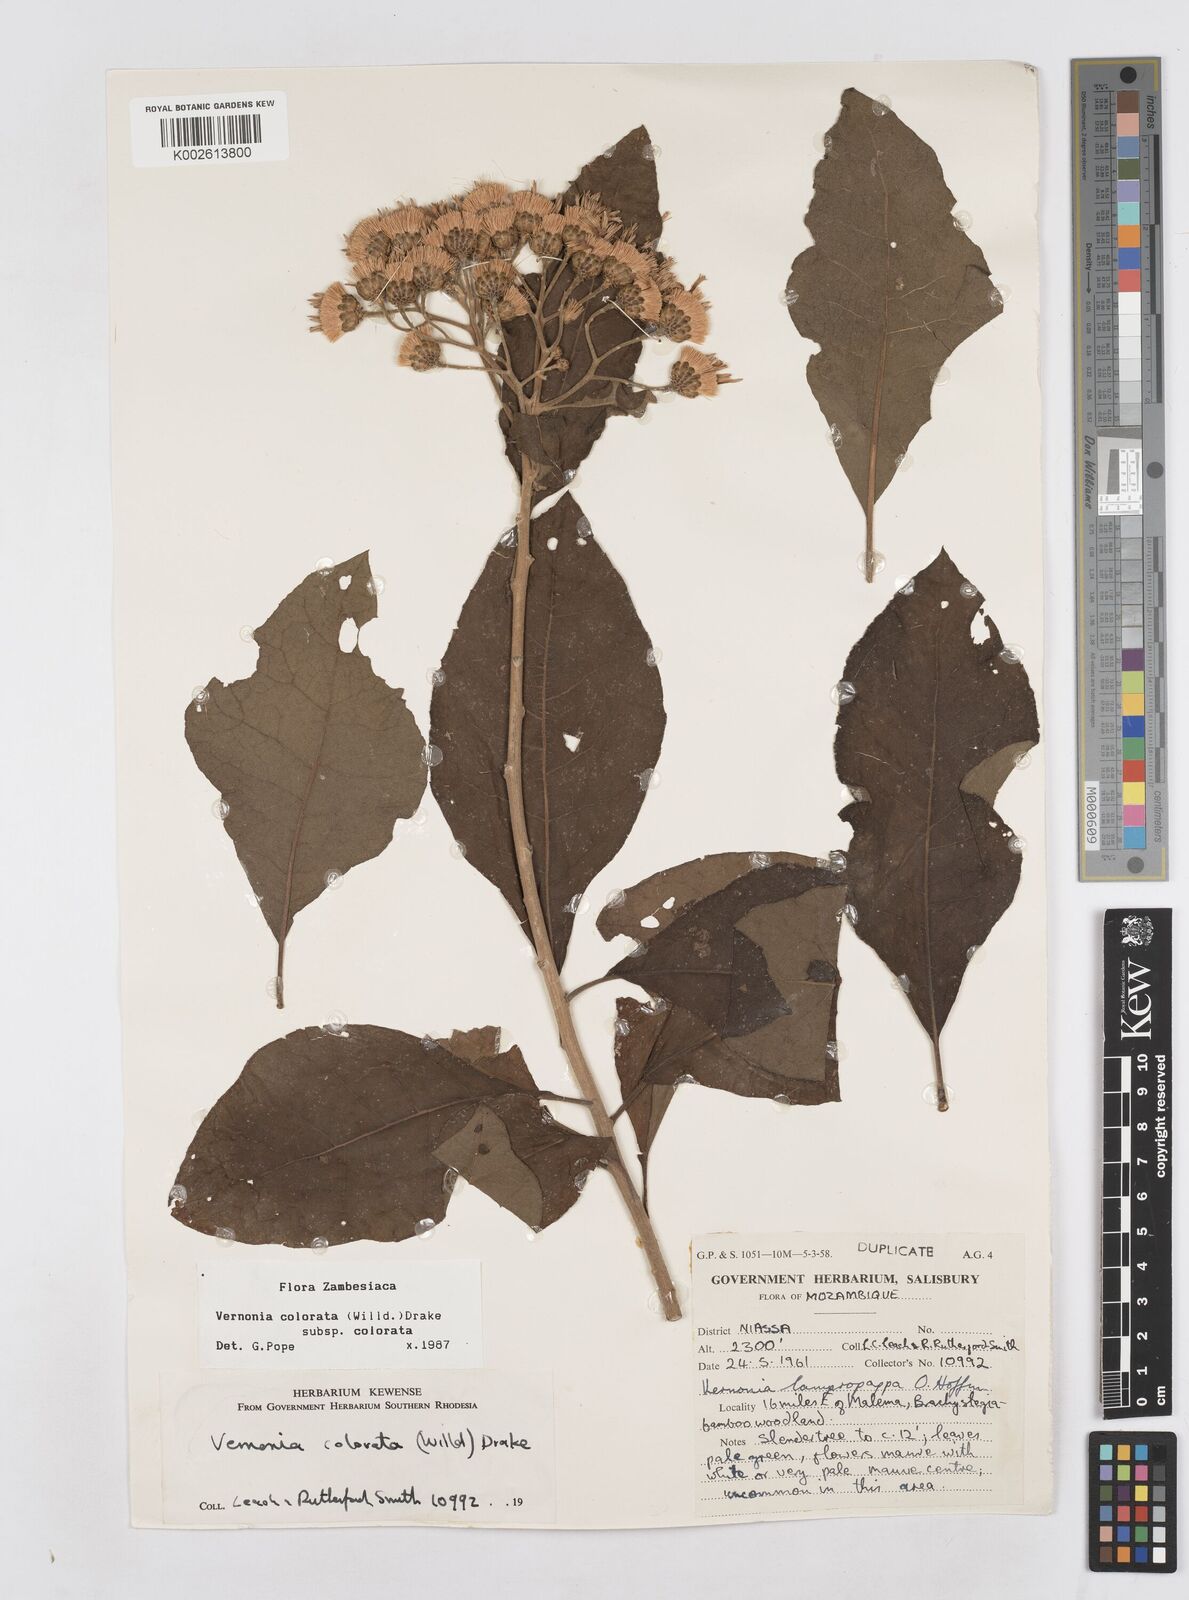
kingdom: Plantae
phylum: Tracheophyta
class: Magnoliopsida
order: Asterales
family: Asteraceae
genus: Vernonia
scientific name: Vernonia colorata
